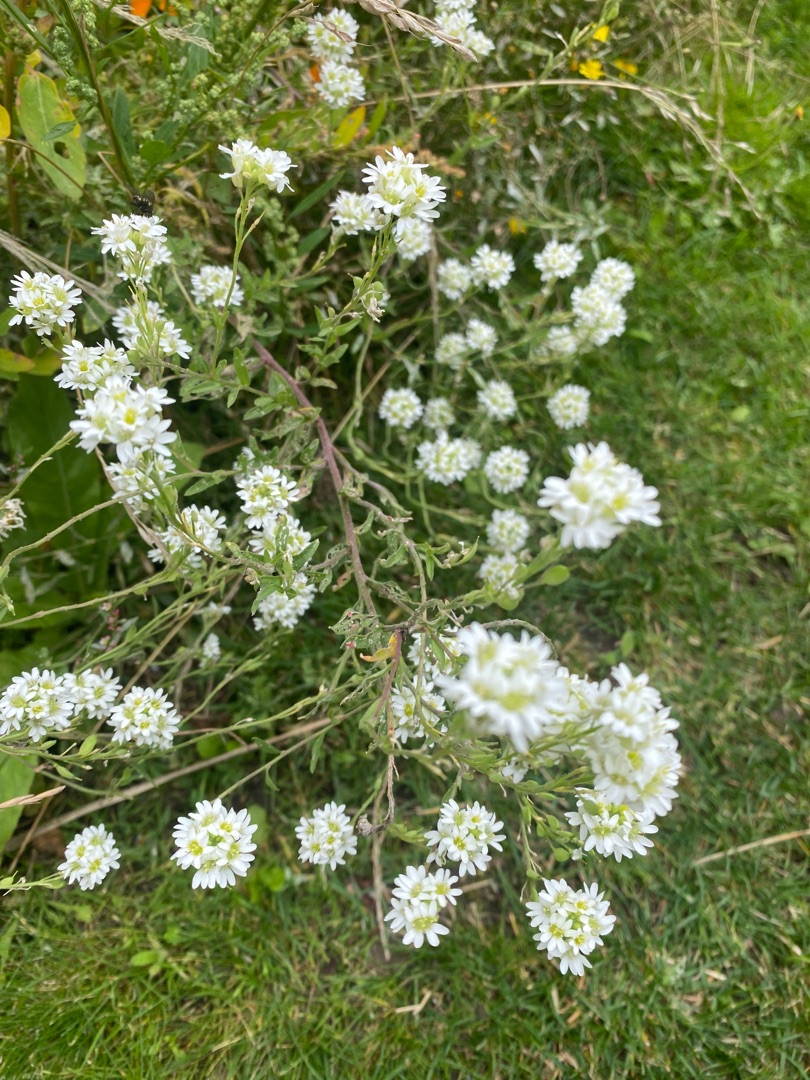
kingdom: Plantae
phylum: Tracheophyta
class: Magnoliopsida
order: Brassicales
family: Brassicaceae
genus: Berteroa
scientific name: Berteroa incana
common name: Kløvplade
